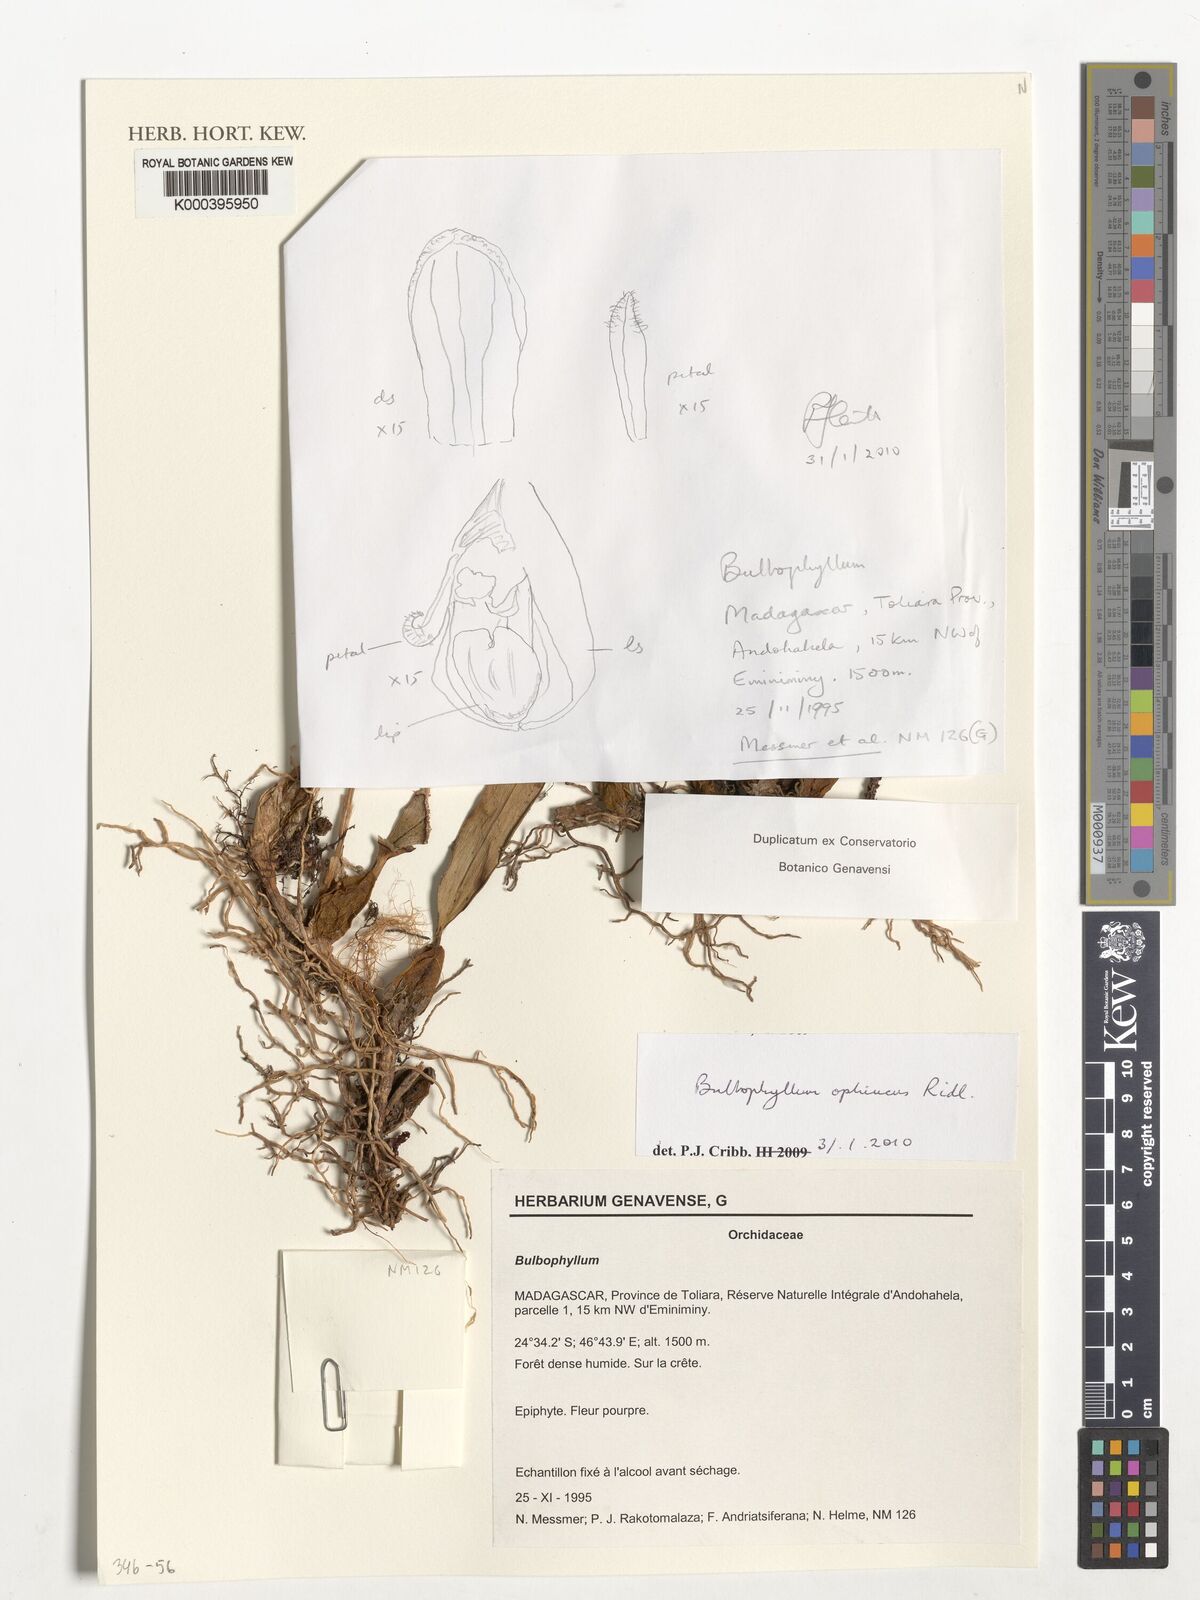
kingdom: Plantae
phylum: Tracheophyta
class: Liliopsida
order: Asparagales
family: Orchidaceae
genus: Bulbophyllum
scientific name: Bulbophyllum ophiuchus
